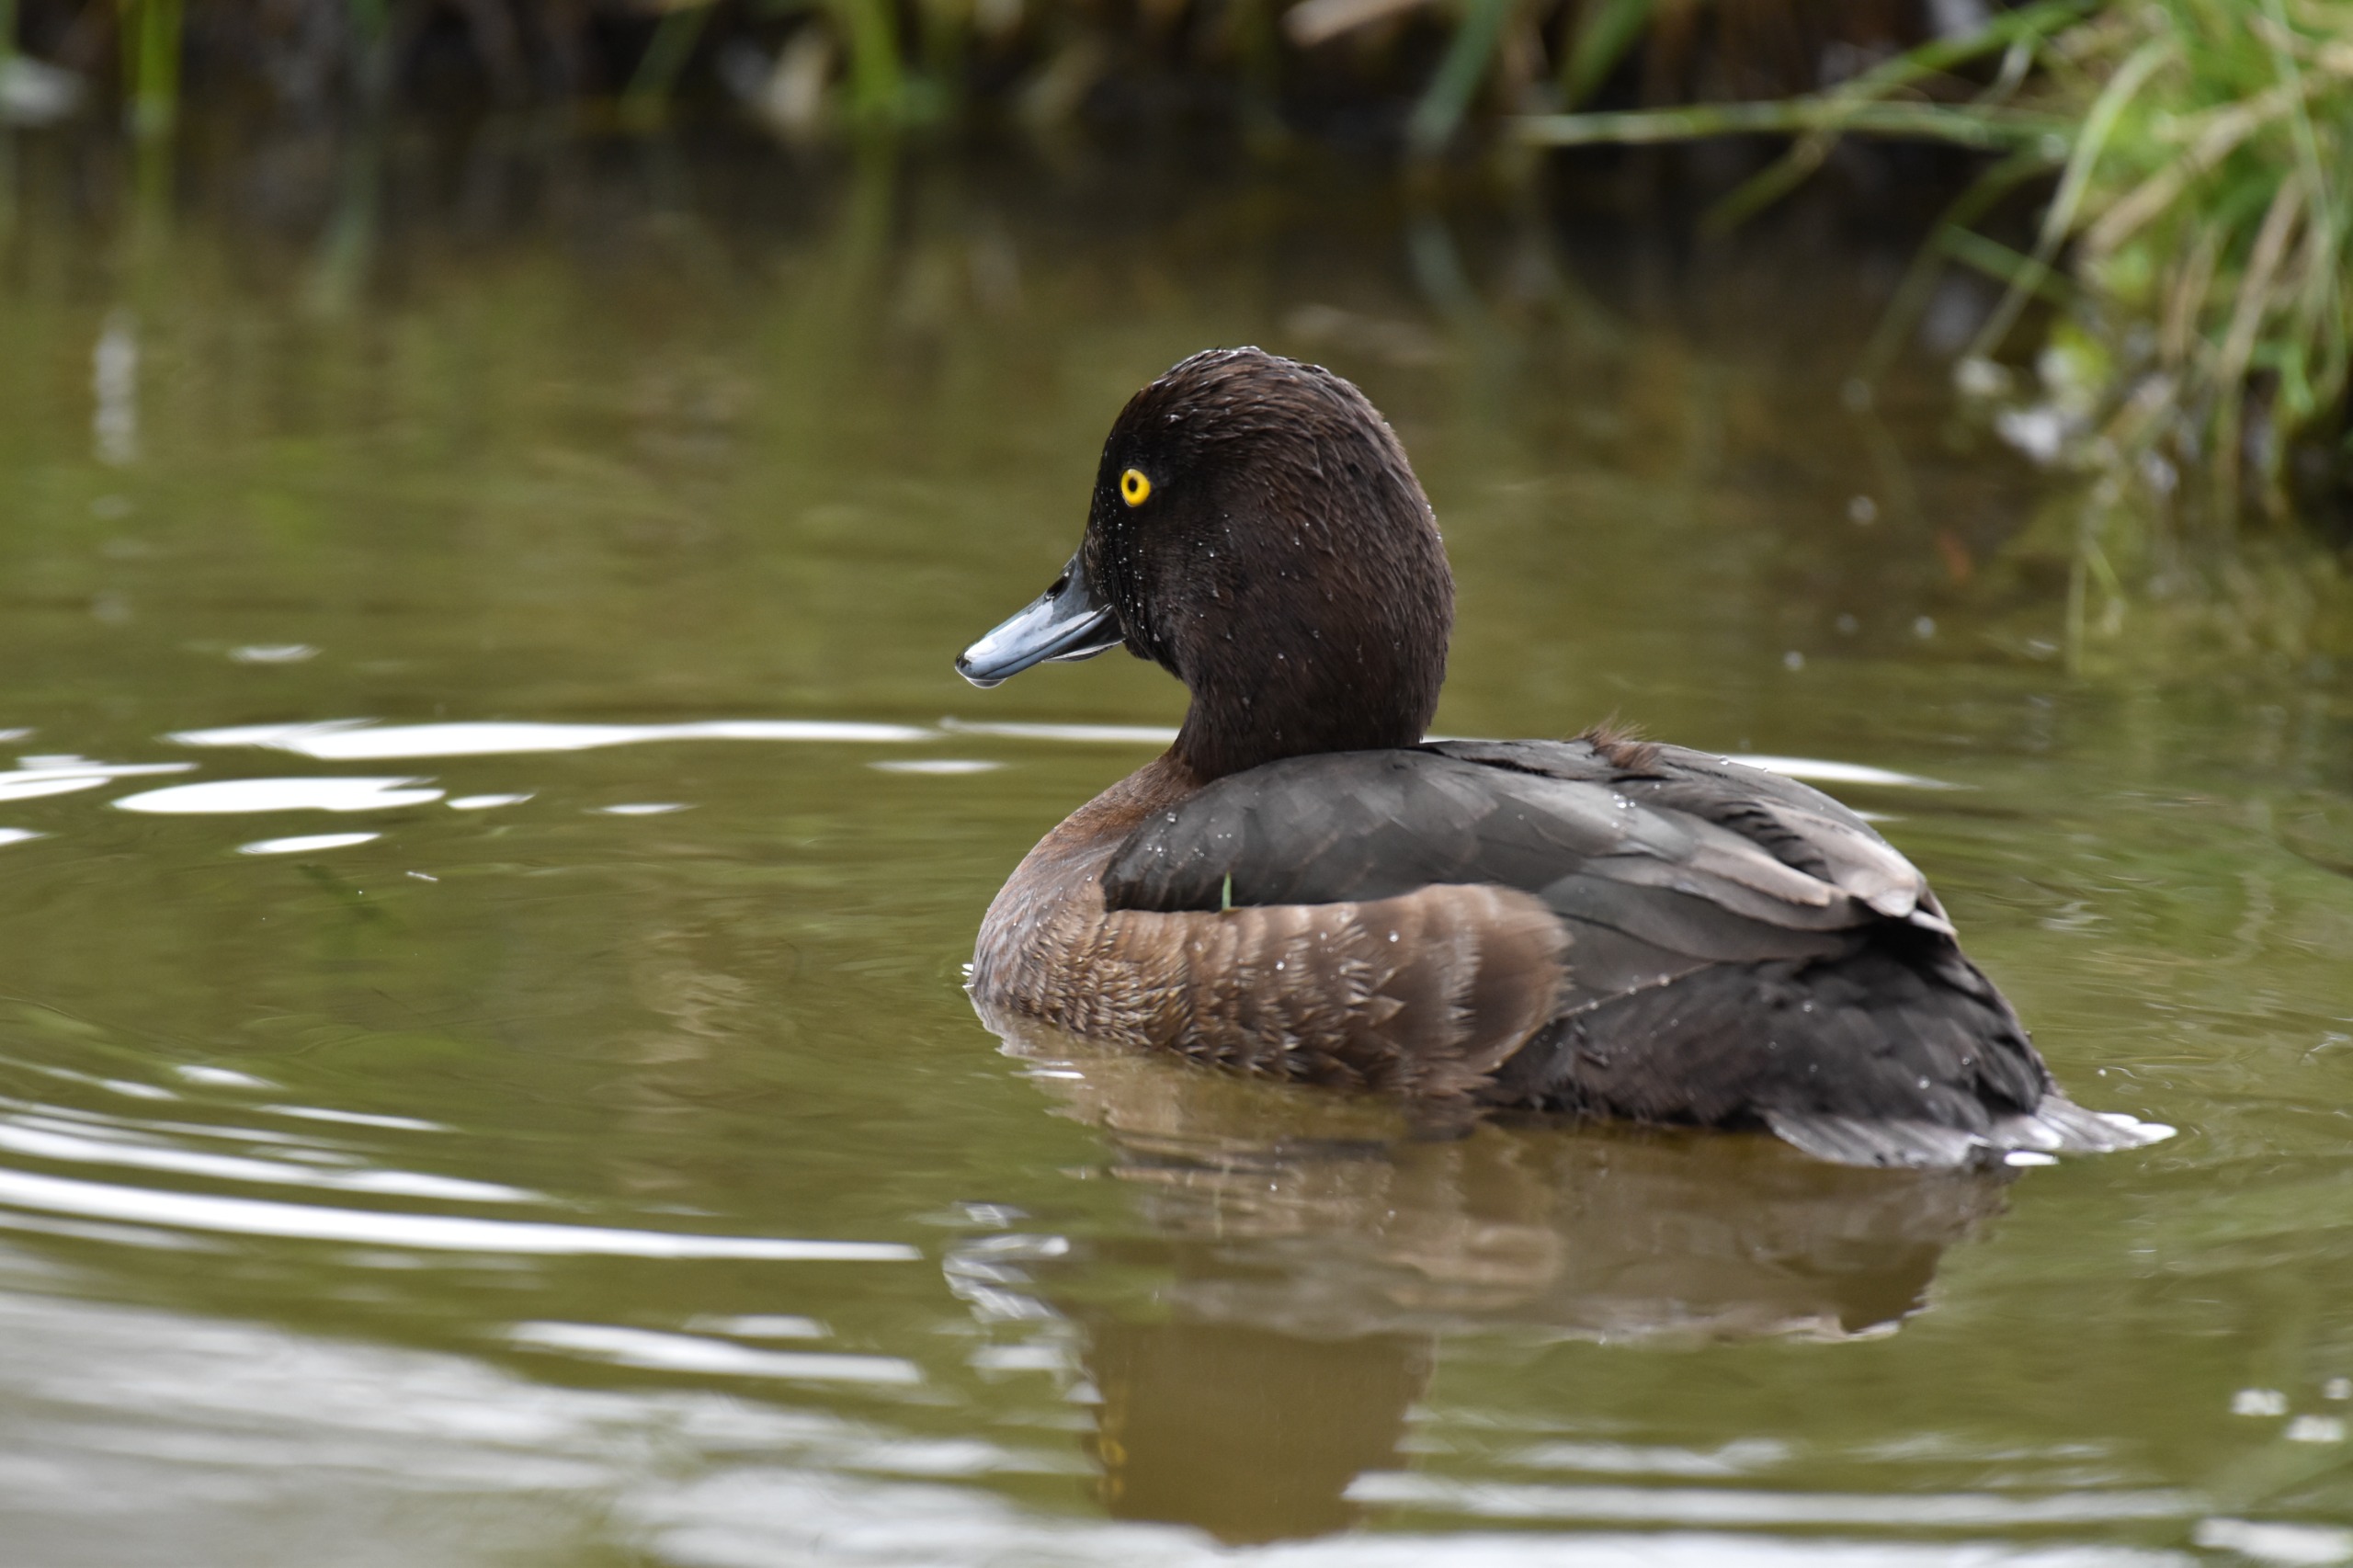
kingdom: Animalia
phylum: Chordata
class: Aves
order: Anseriformes
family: Anatidae
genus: Aythya
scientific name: Aythya fuligula
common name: Troldand
